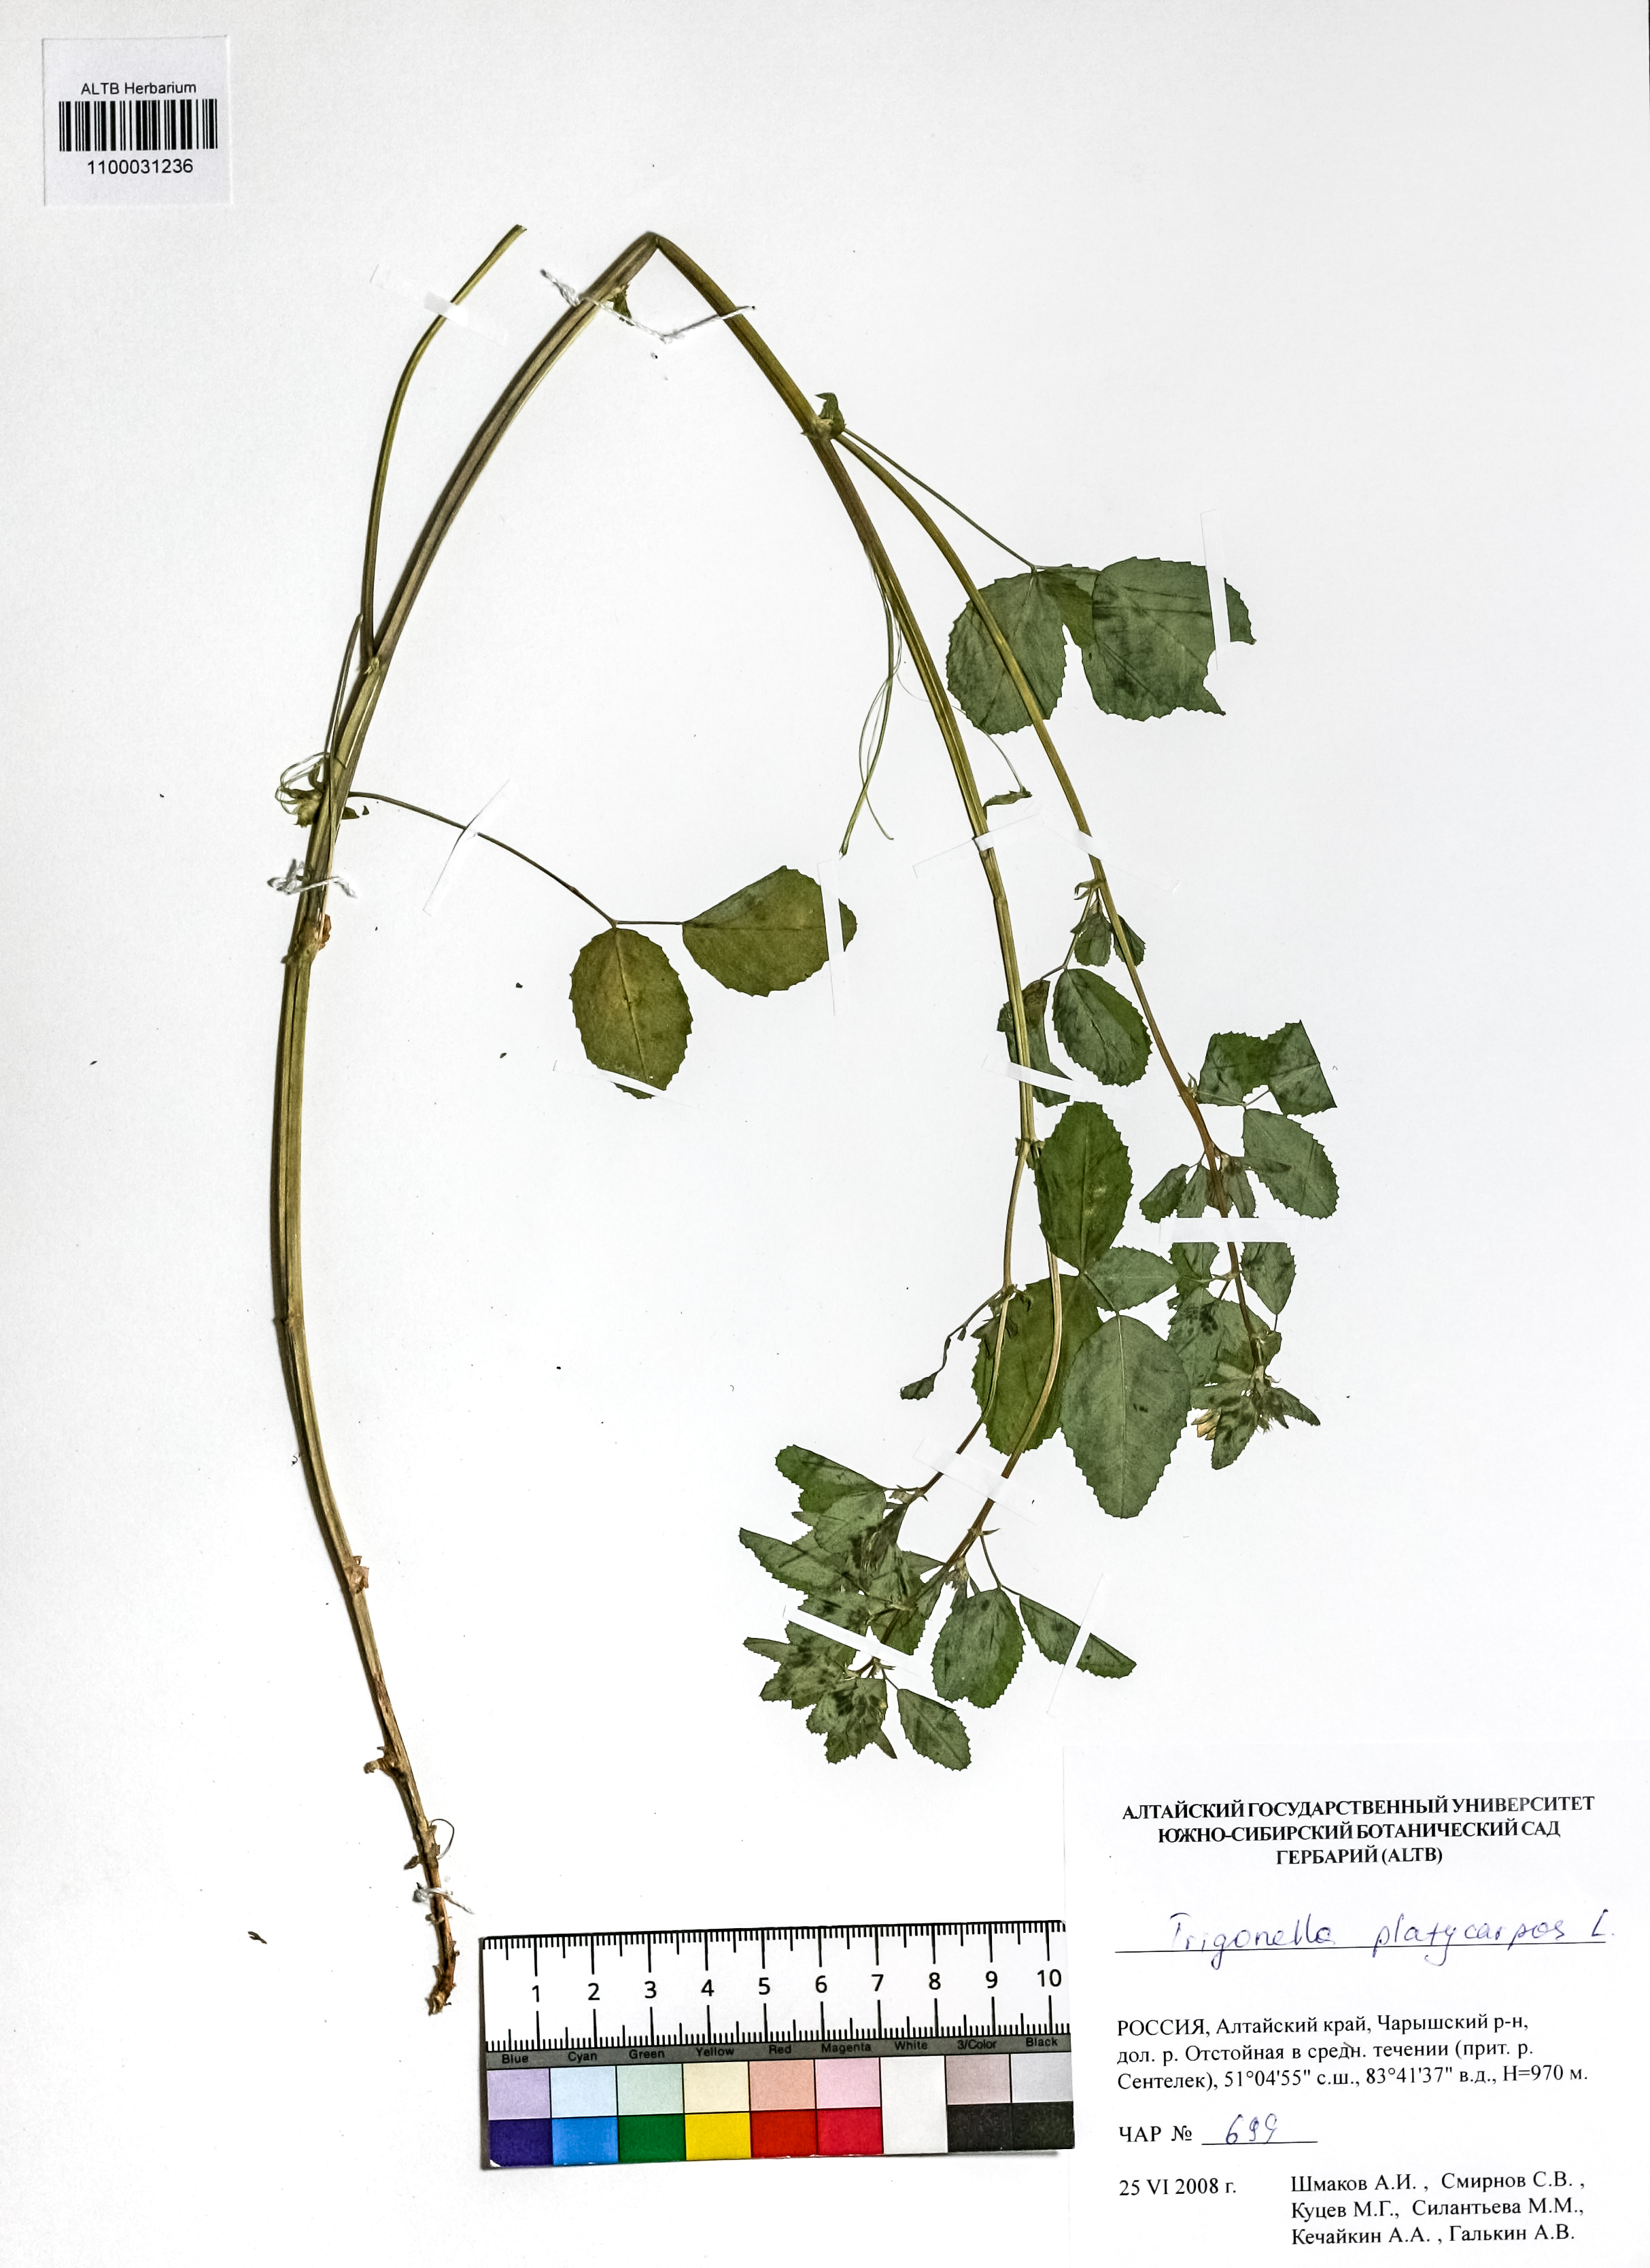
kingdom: Plantae
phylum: Tracheophyta
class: Magnoliopsida
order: Fabales
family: Fabaceae
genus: Medicago
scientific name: Medicago platycarpos
